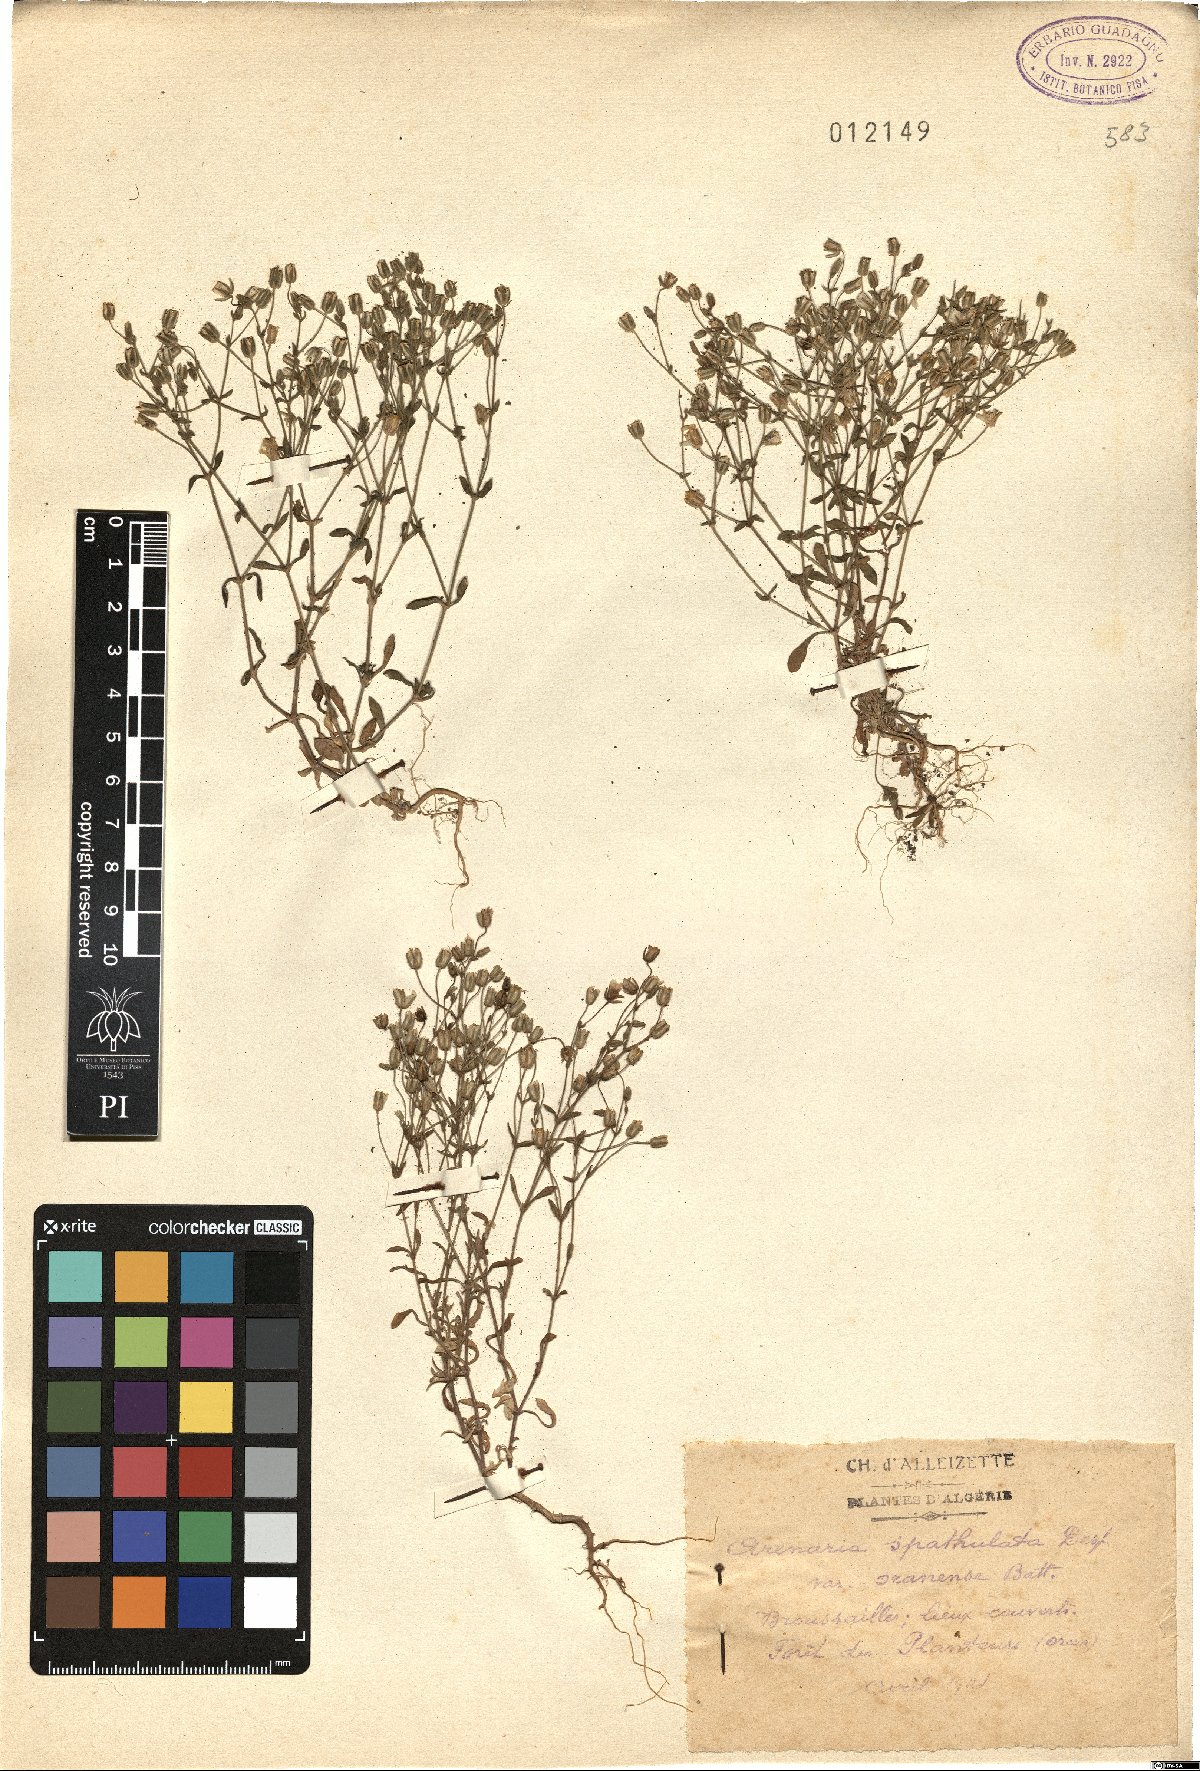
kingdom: Plantae
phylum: Tracheophyta
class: Magnoliopsida
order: Caryophyllales
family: Caryophyllaceae
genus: Arenaria
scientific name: Arenaria cerastioides
